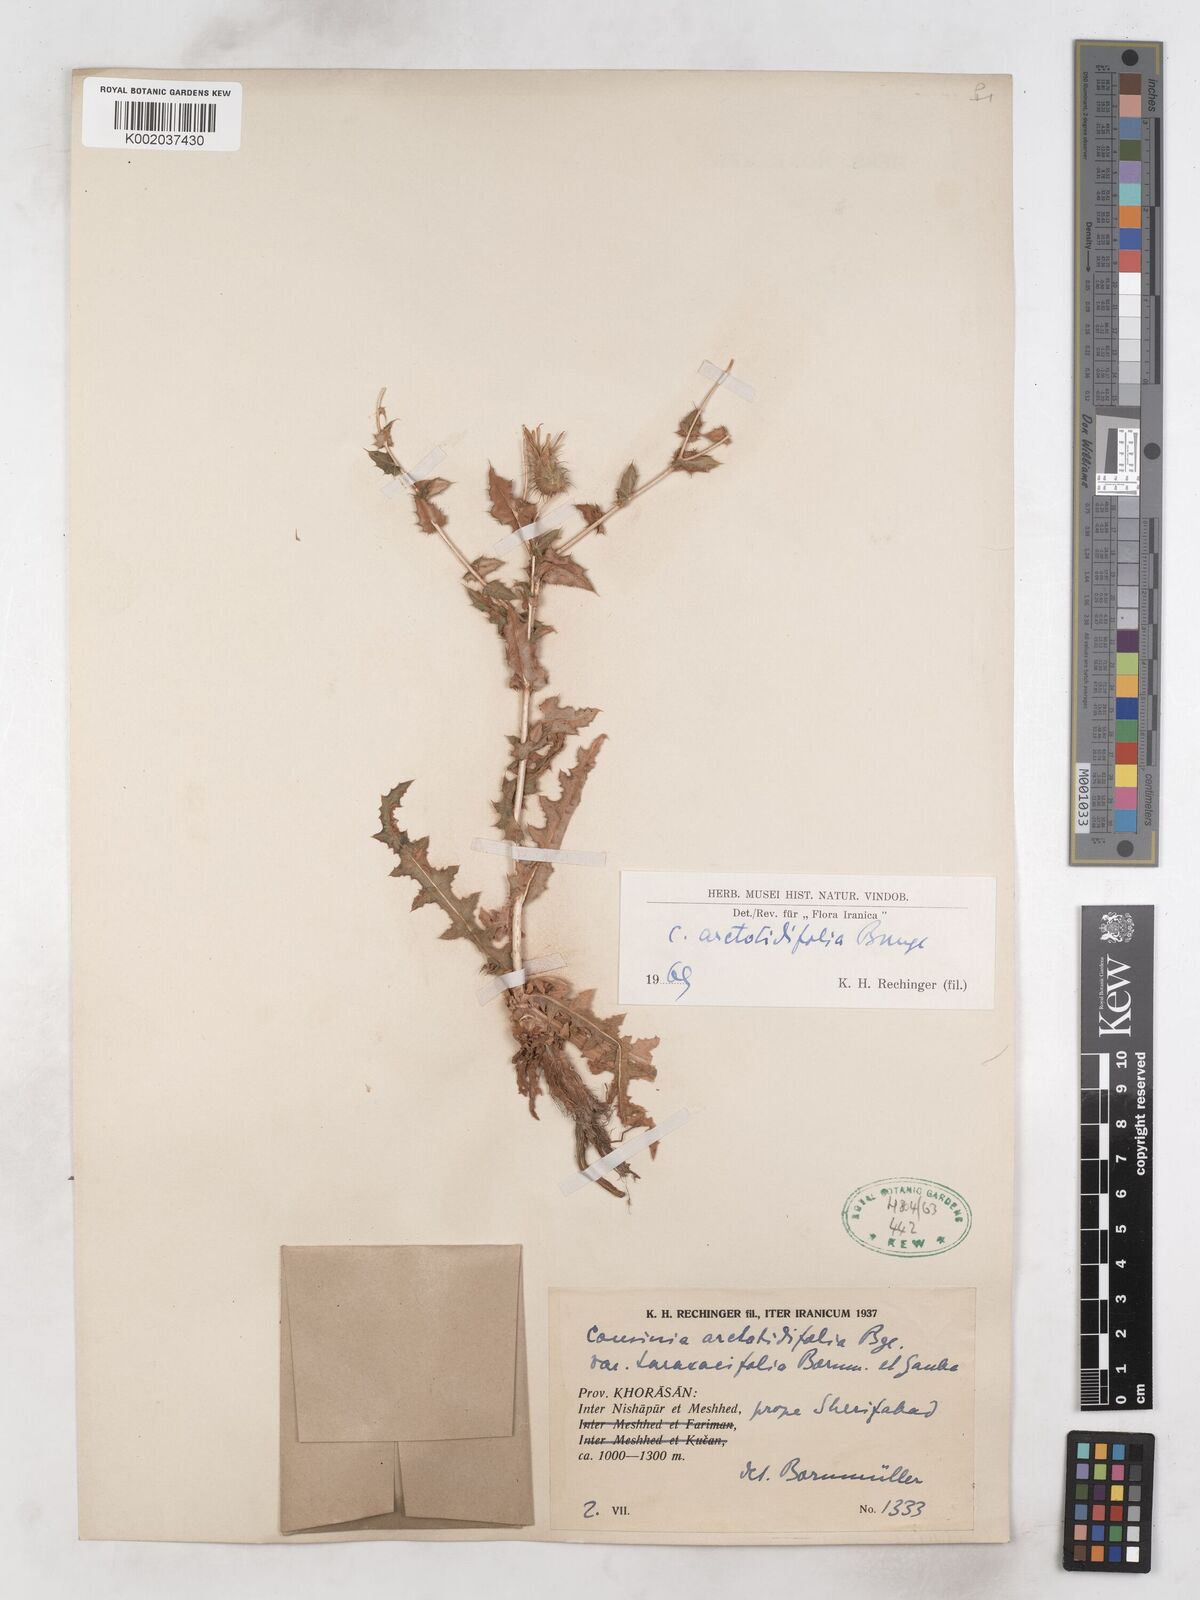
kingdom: Plantae
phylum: Tracheophyta
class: Magnoliopsida
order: Asterales
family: Asteraceae
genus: Cousinia
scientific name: Cousinia arctotidifolia
